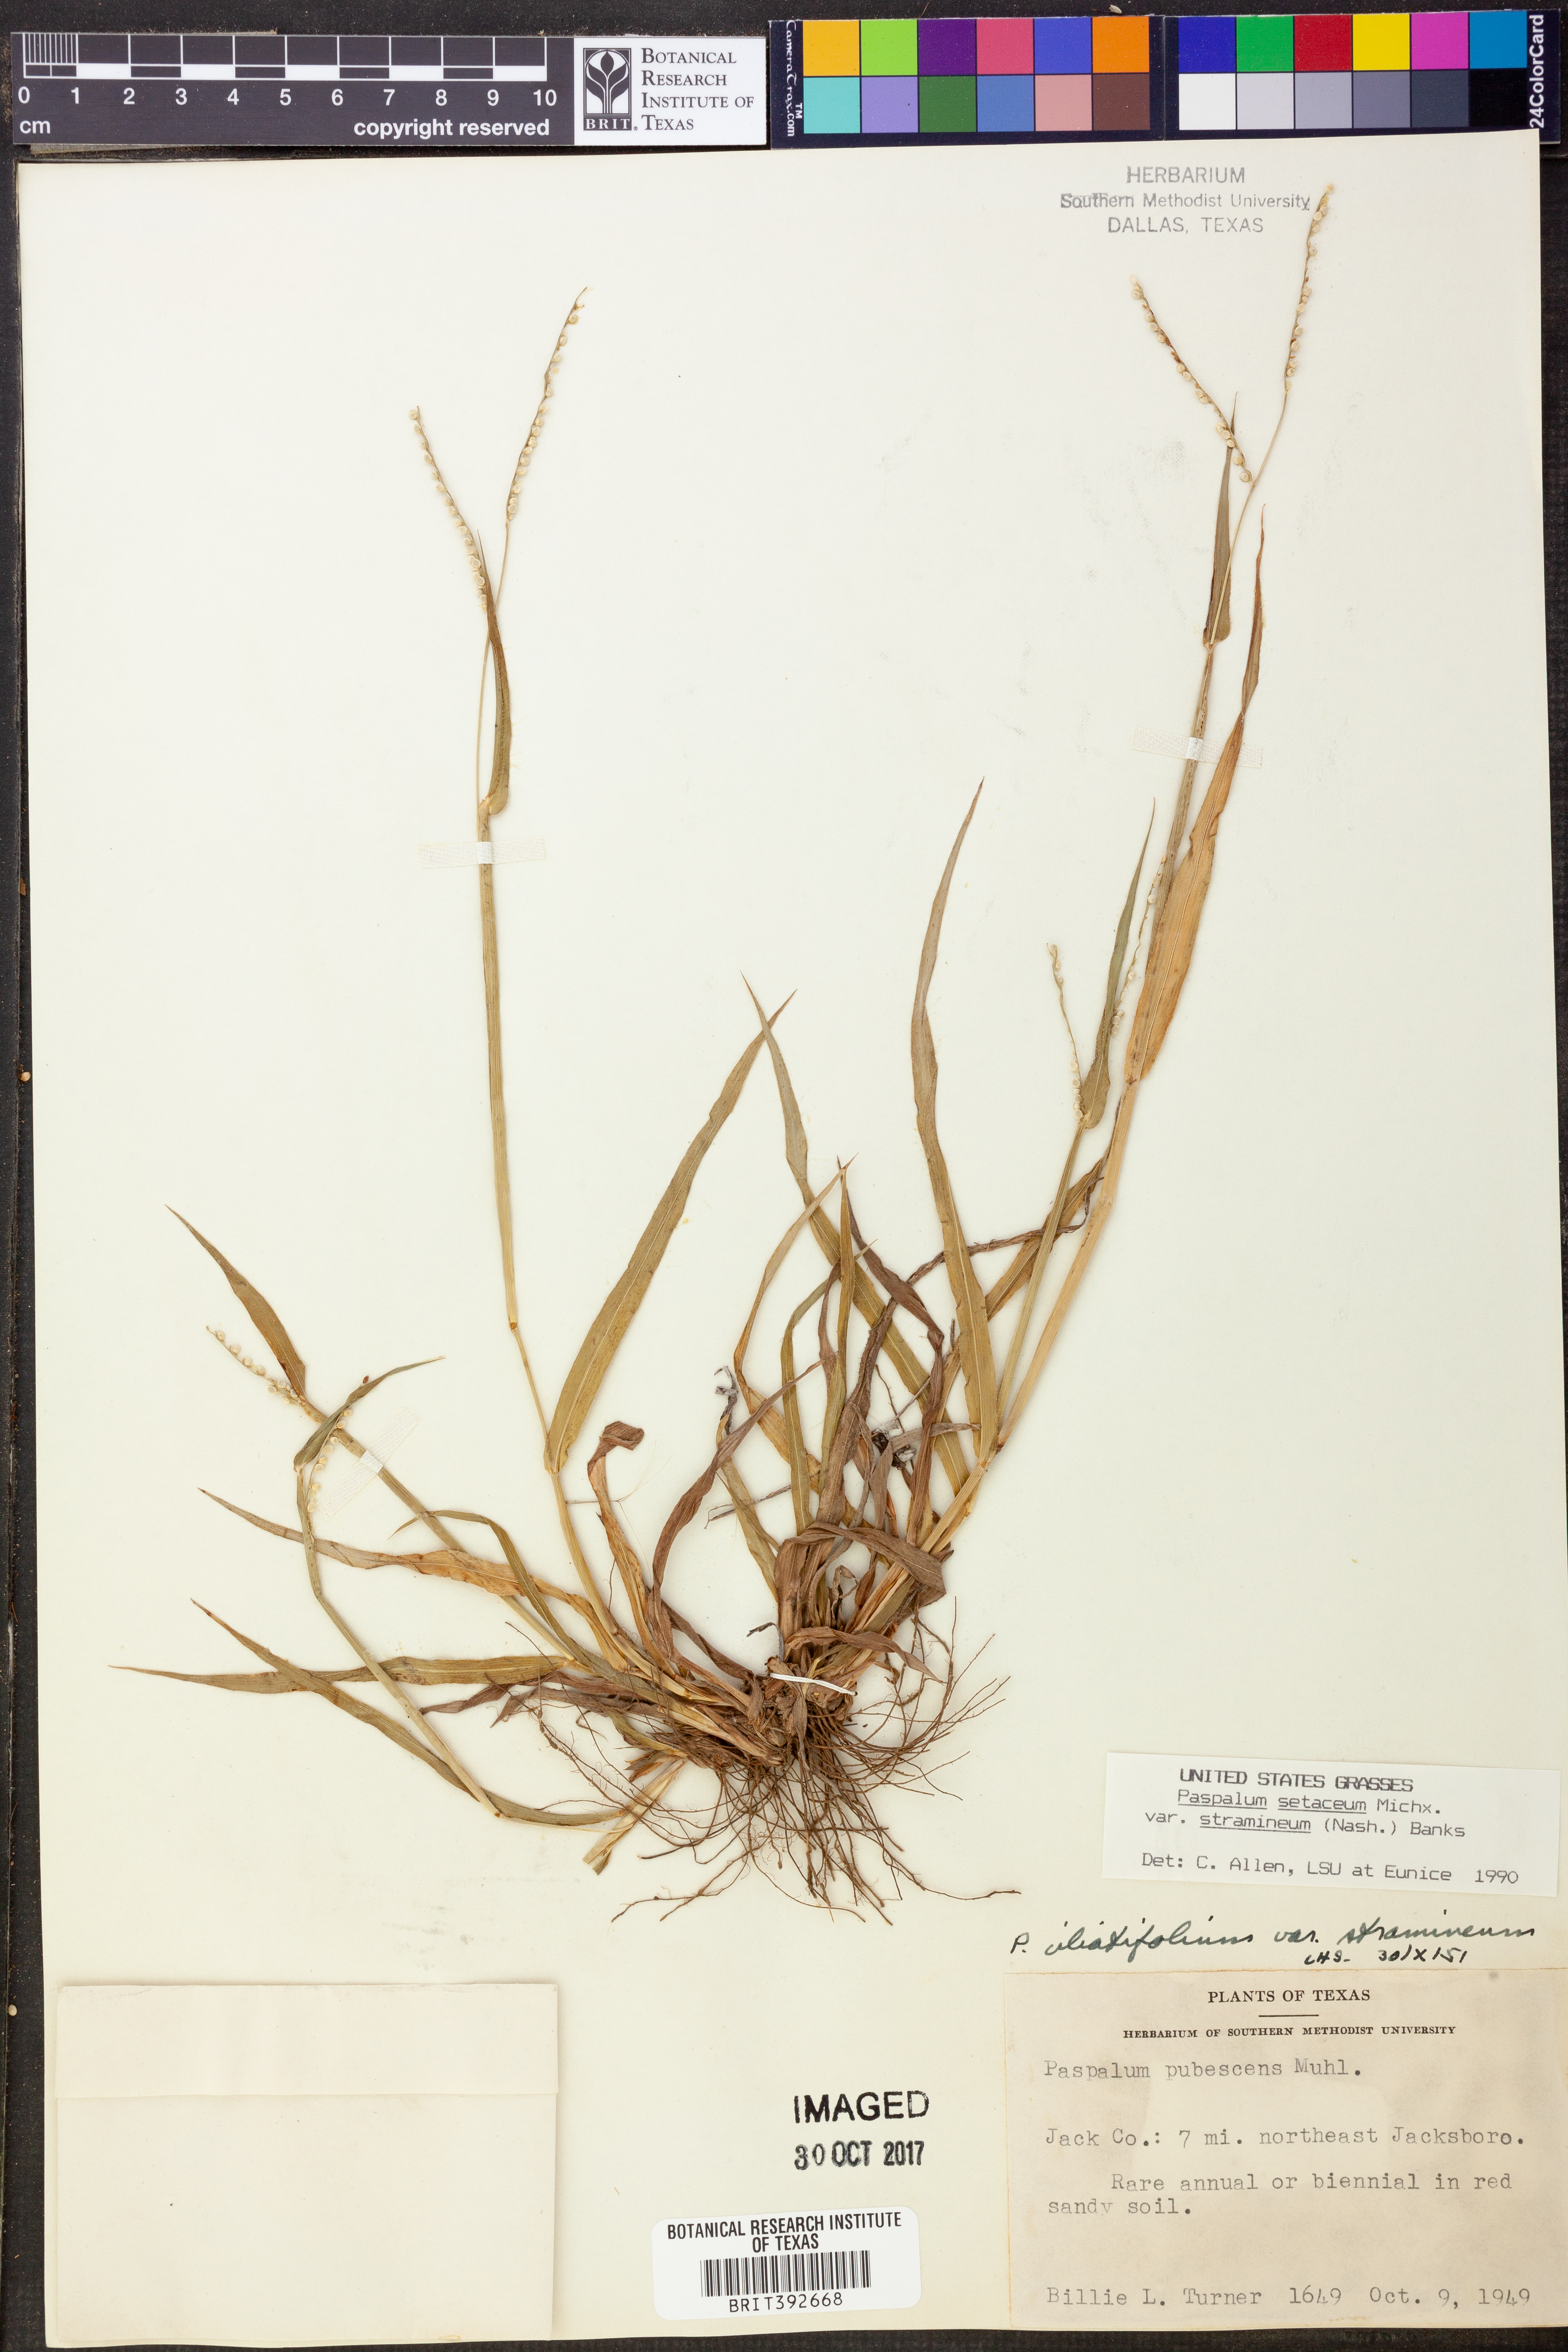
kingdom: Plantae
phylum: Tracheophyta
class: Liliopsida
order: Poales
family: Poaceae
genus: Paspalum
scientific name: Paspalum setaceum
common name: Slender paspalum
